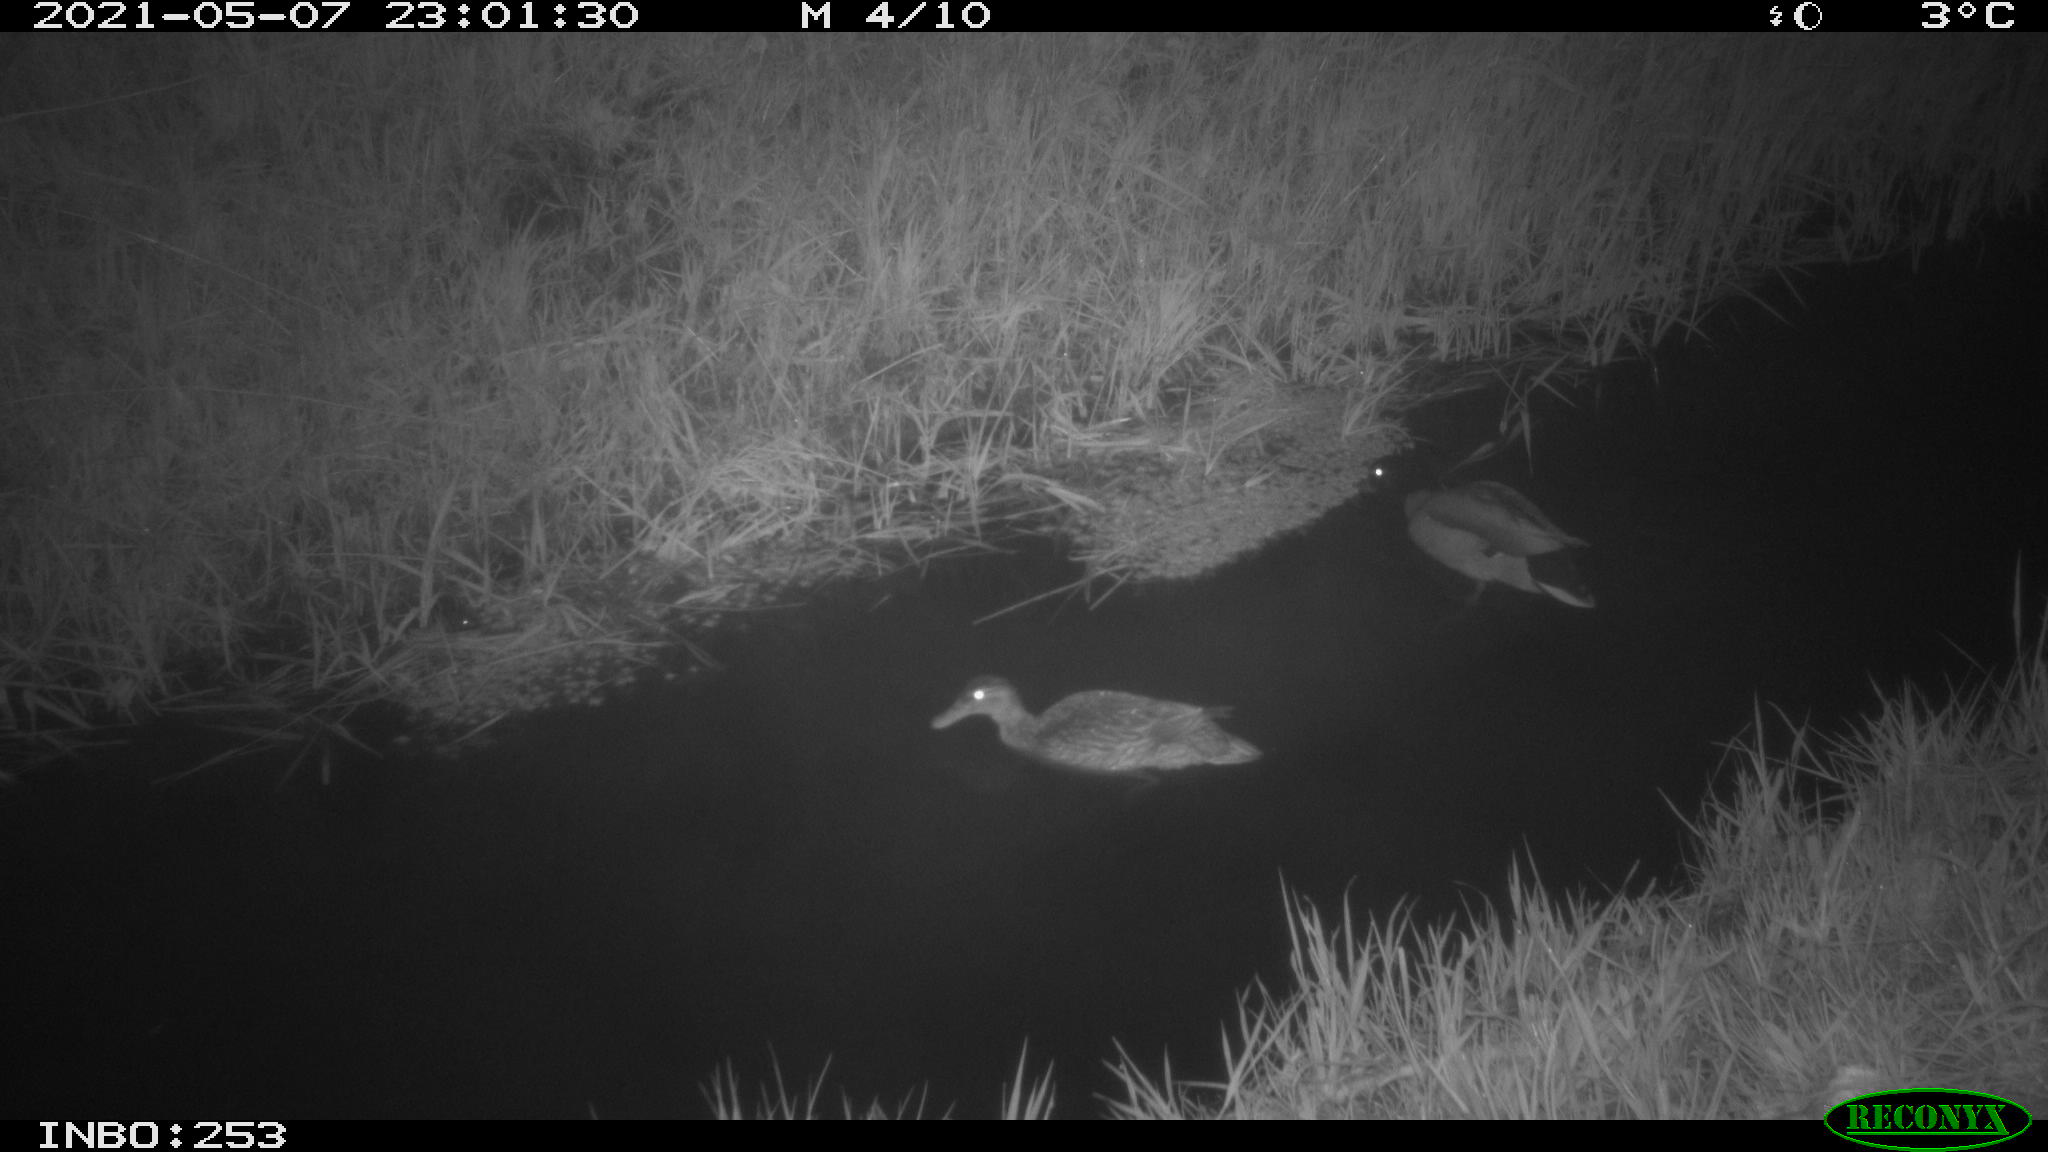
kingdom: Animalia
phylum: Chordata
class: Aves
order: Anseriformes
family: Anatidae
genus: Anas
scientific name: Anas platyrhynchos
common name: Mallard
